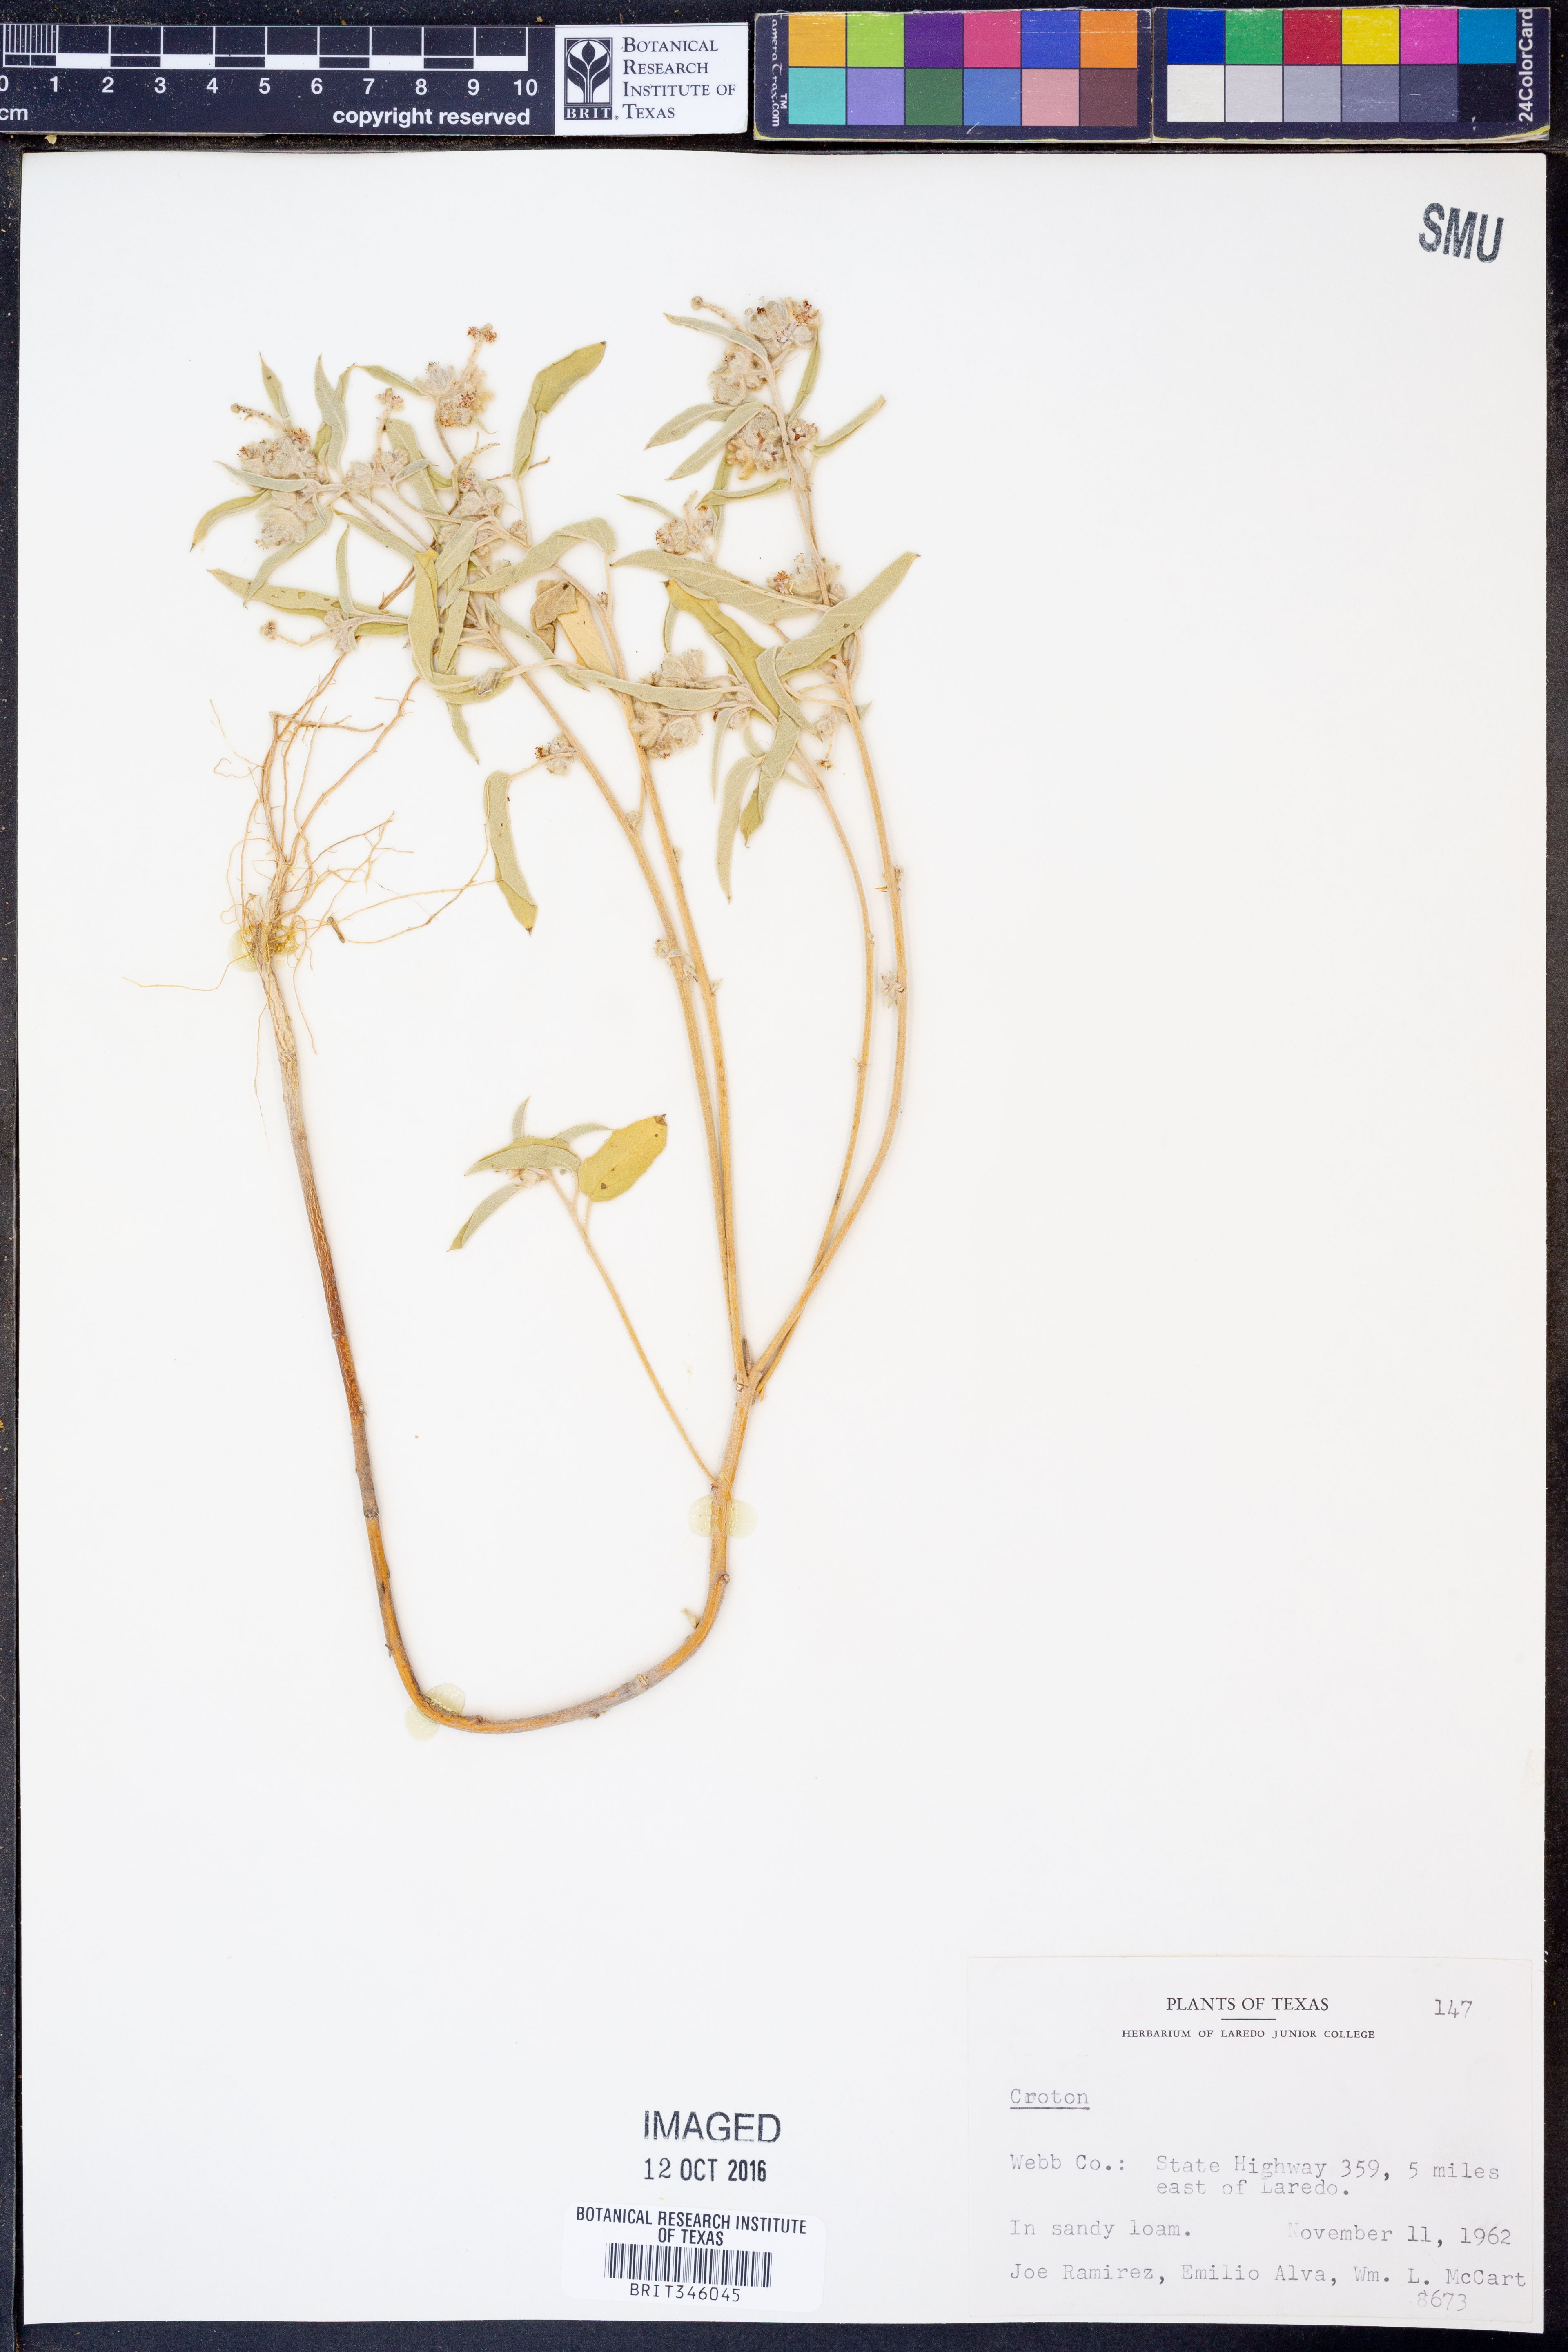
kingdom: Plantae
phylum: Tracheophyta
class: Magnoliopsida
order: Malpighiales
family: Euphorbiaceae
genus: Croton
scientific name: Croton
